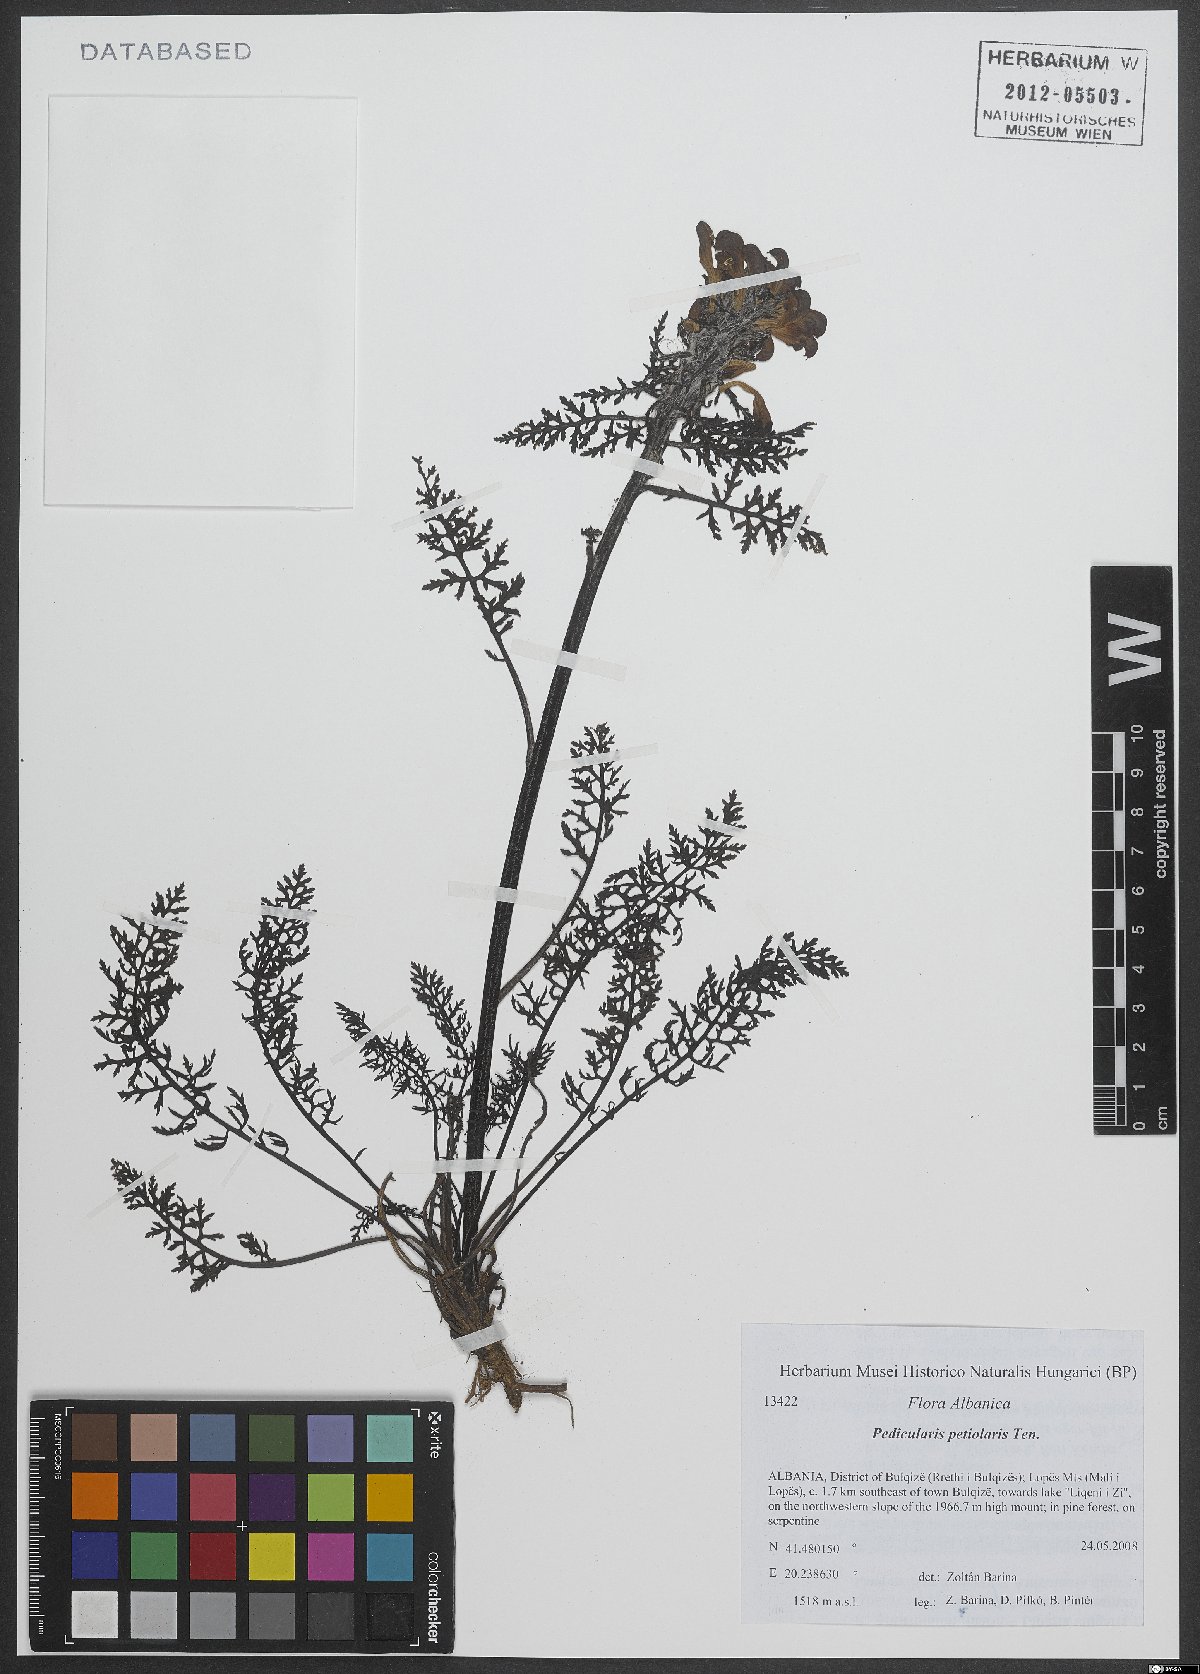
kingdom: Plantae
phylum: Tracheophyta
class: Magnoliopsida
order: Lamiales
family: Orobanchaceae
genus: Pedicularis
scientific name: Pedicularis petiolaris
